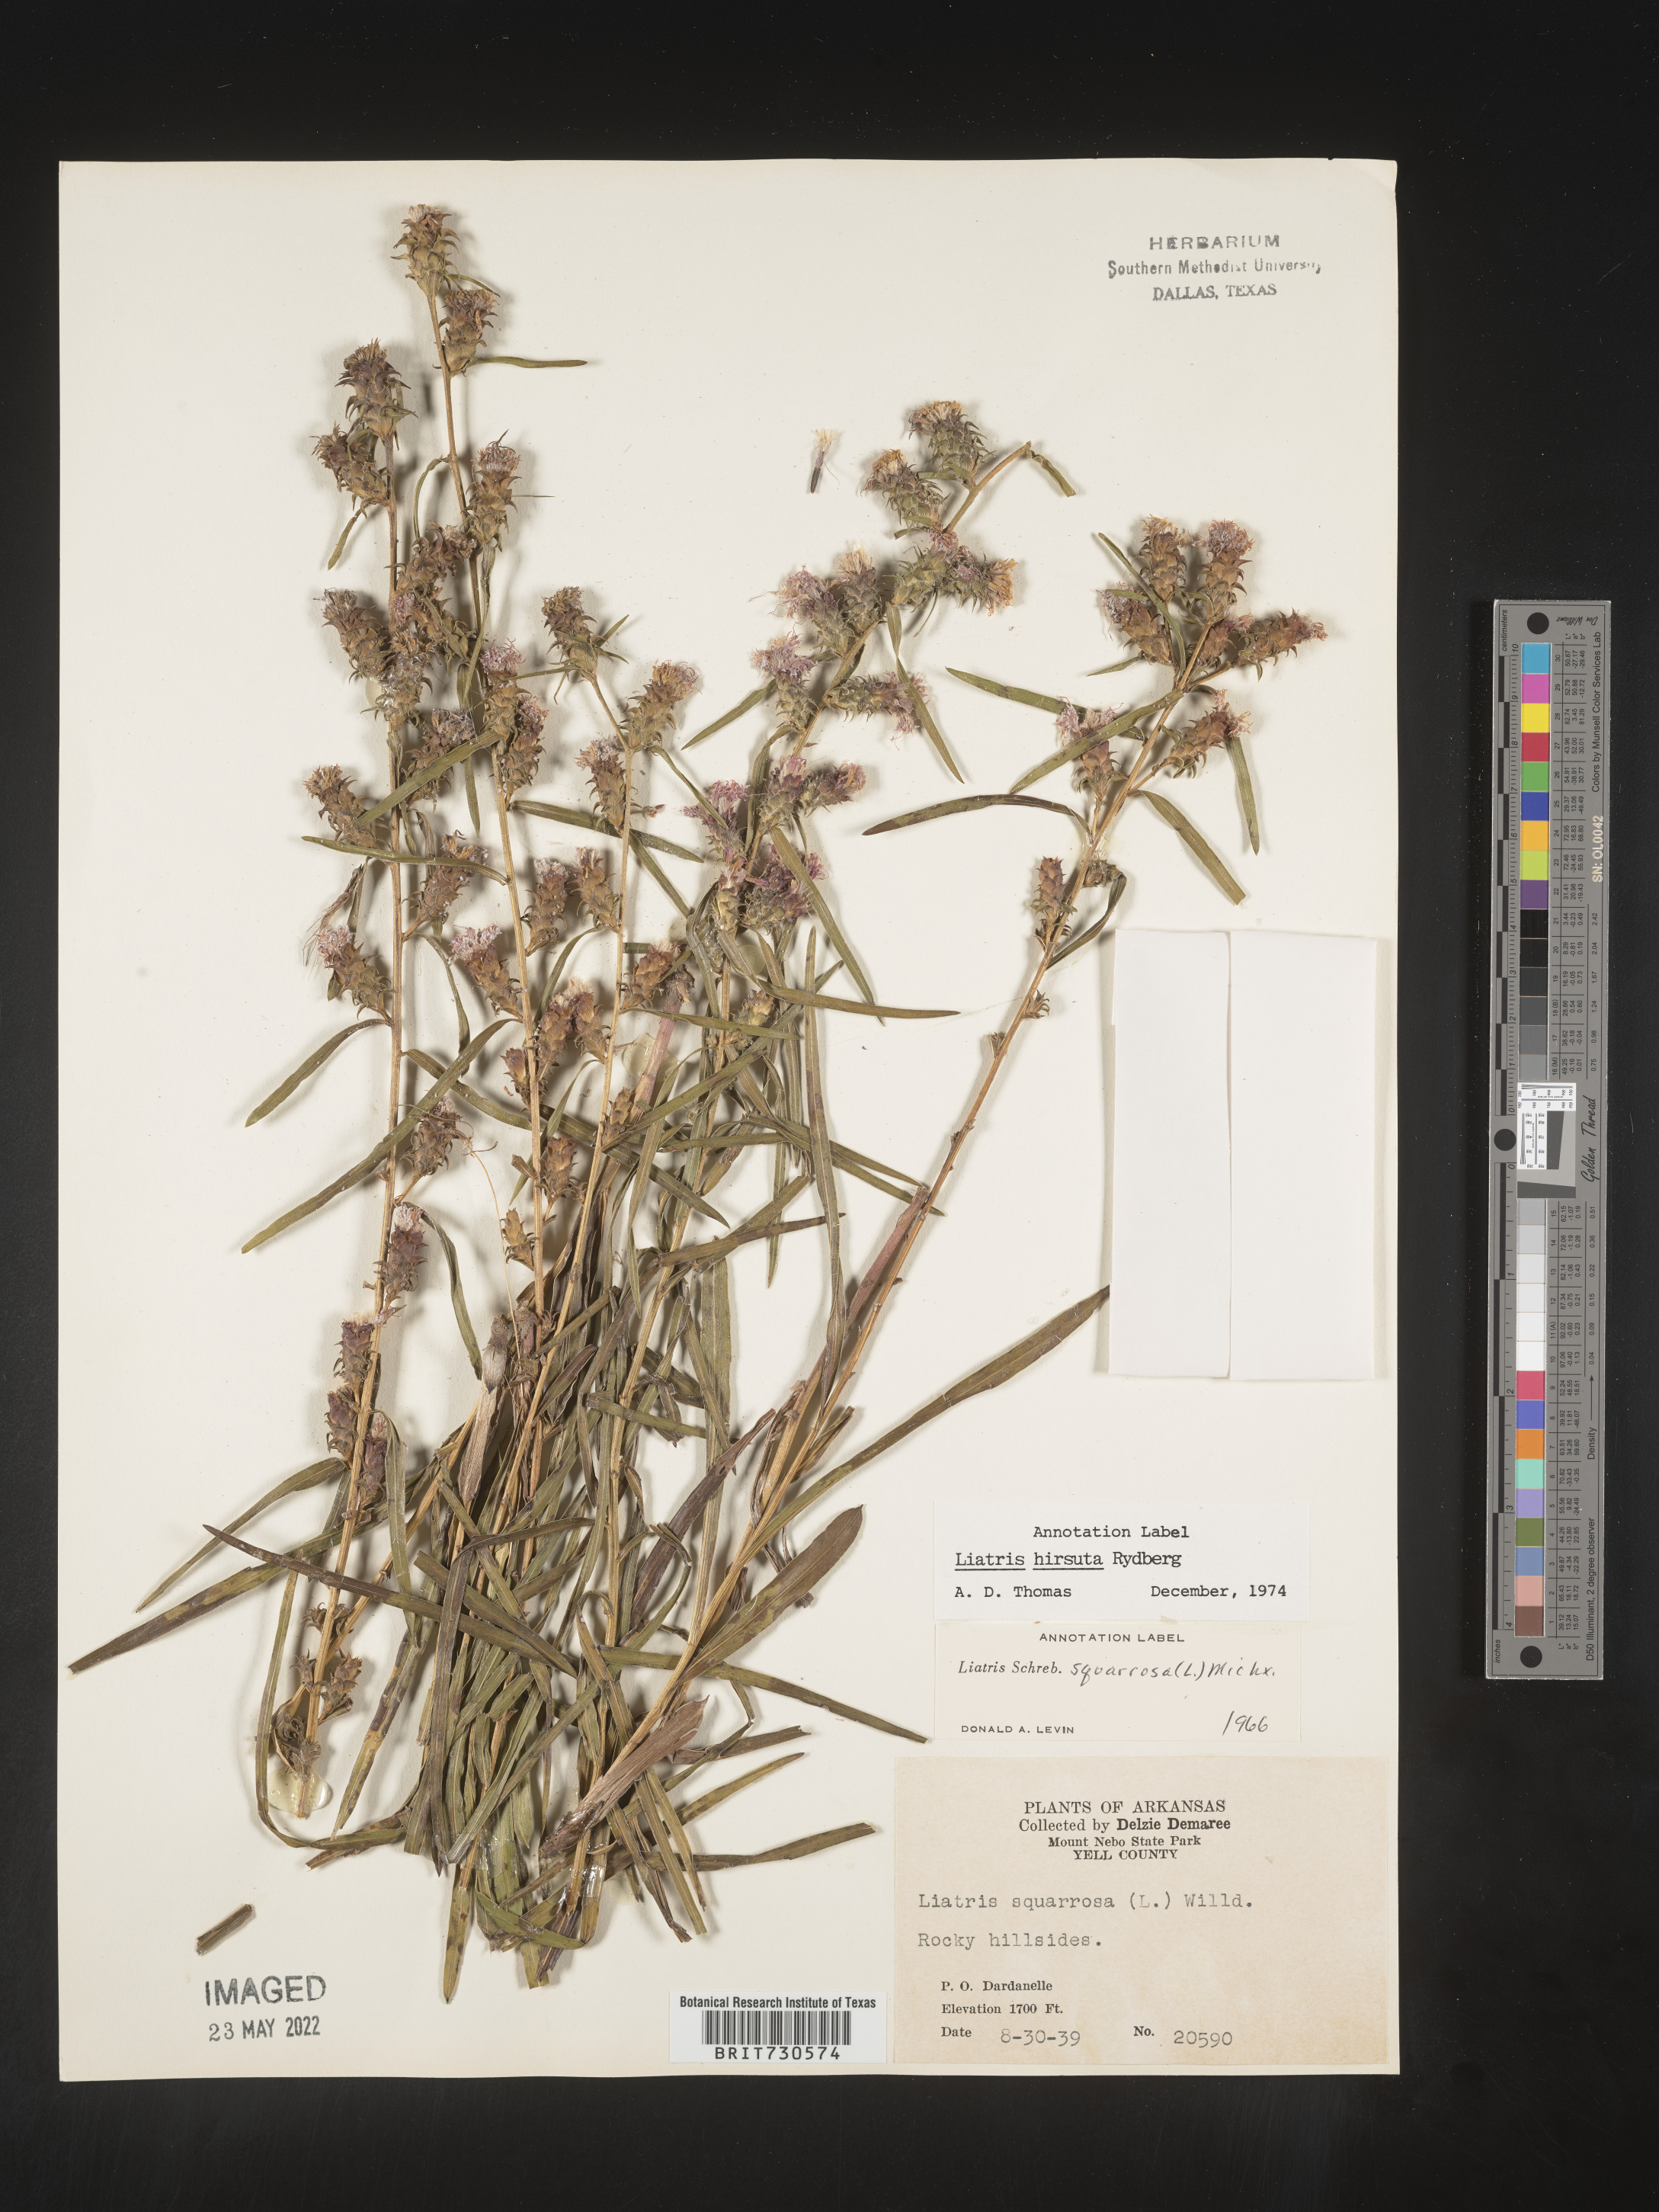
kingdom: Plantae
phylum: Tracheophyta
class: Magnoliopsida
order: Asterales
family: Asteraceae
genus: Liatris
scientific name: Liatris hirsuta
